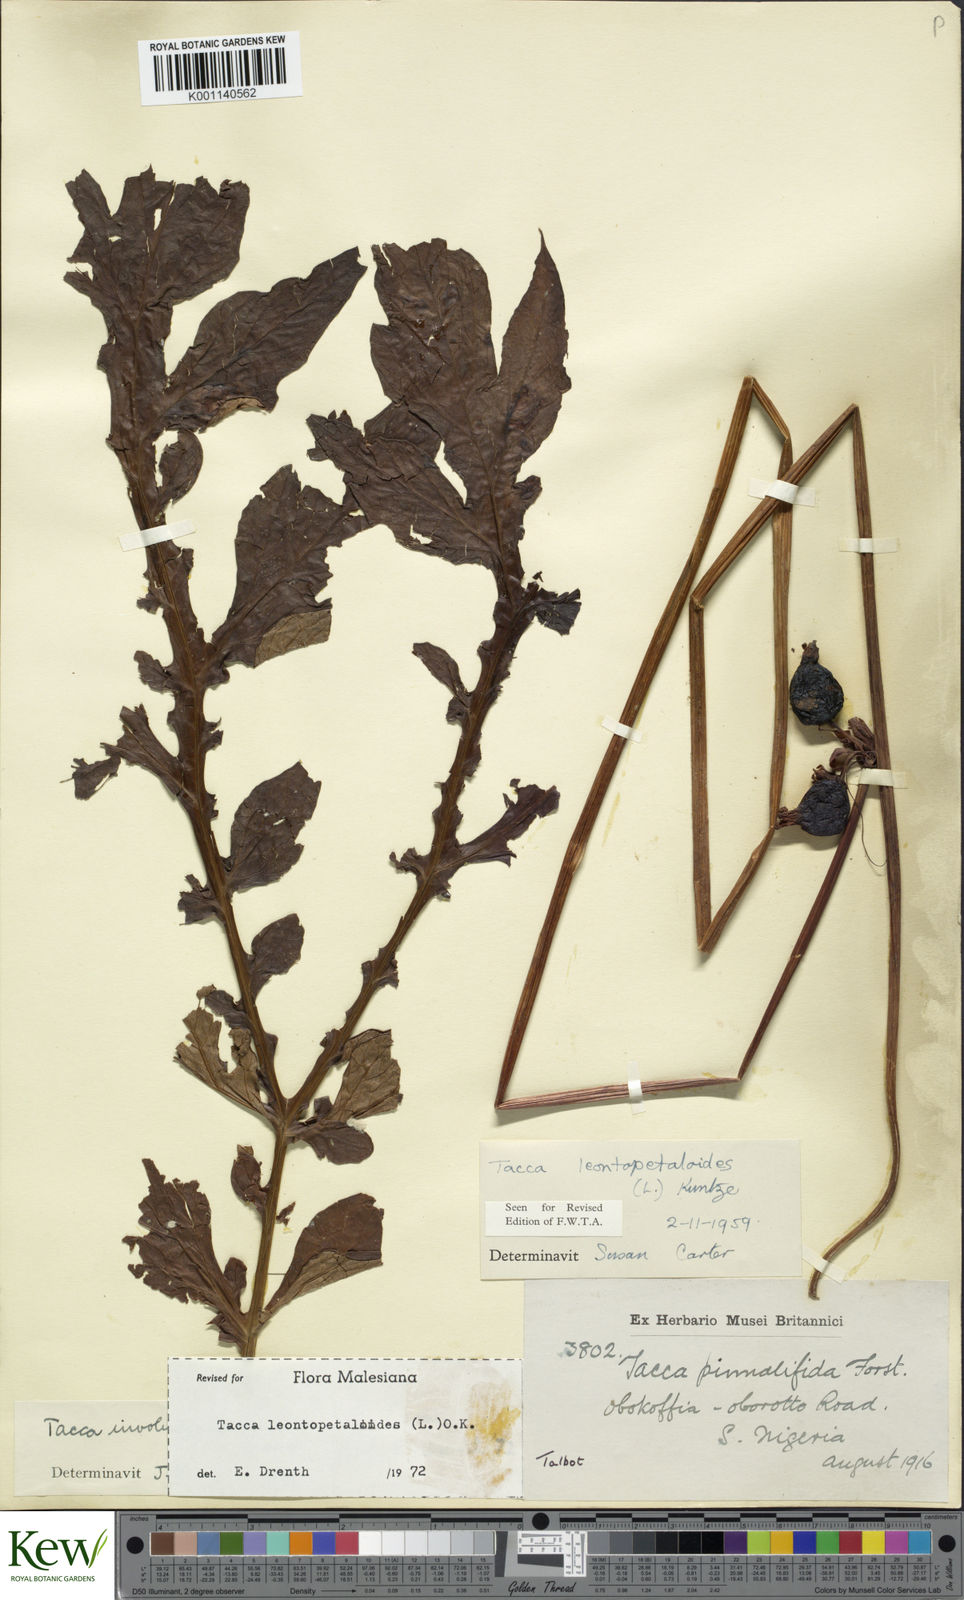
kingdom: Plantae
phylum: Tracheophyta
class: Liliopsida
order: Dioscoreales
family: Dioscoreaceae
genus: Tacca
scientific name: Tacca leontopetaloides
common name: Arrowroot
